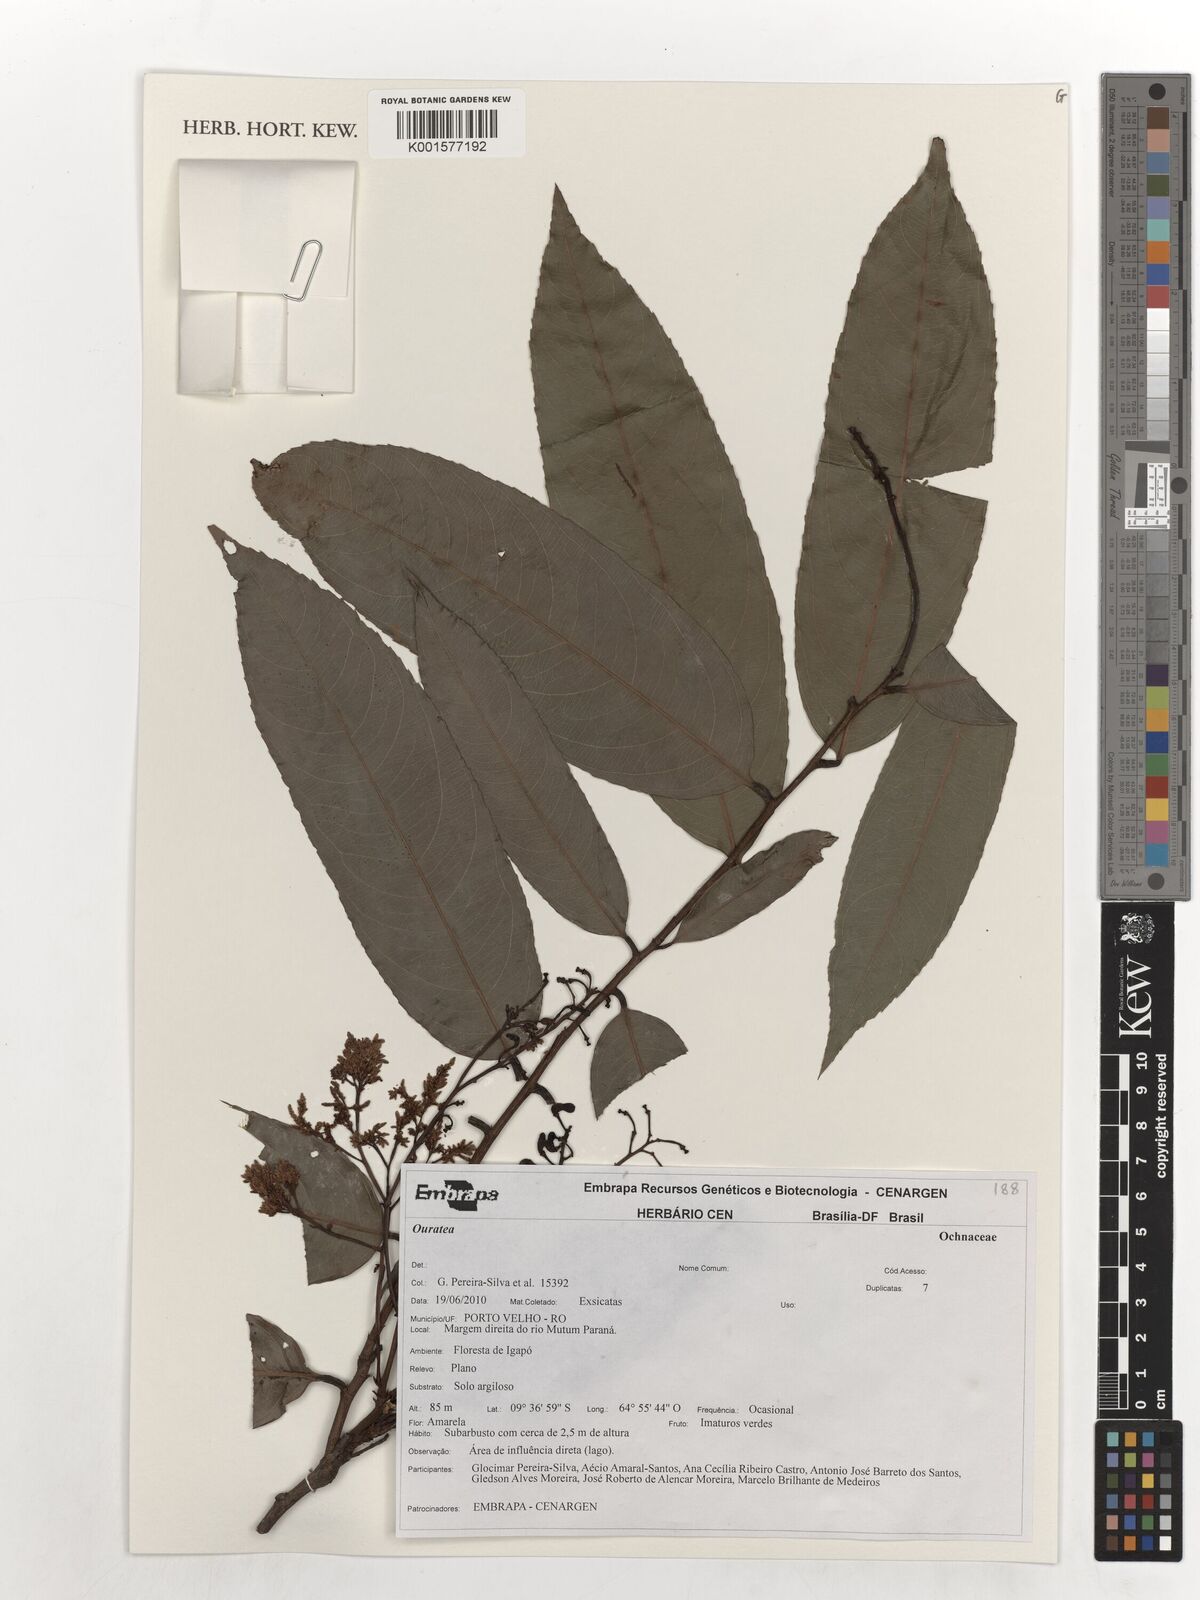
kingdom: Plantae
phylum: Tracheophyta
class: Magnoliopsida
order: Malpighiales
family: Ochnaceae
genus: Ouratea
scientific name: Ouratea
